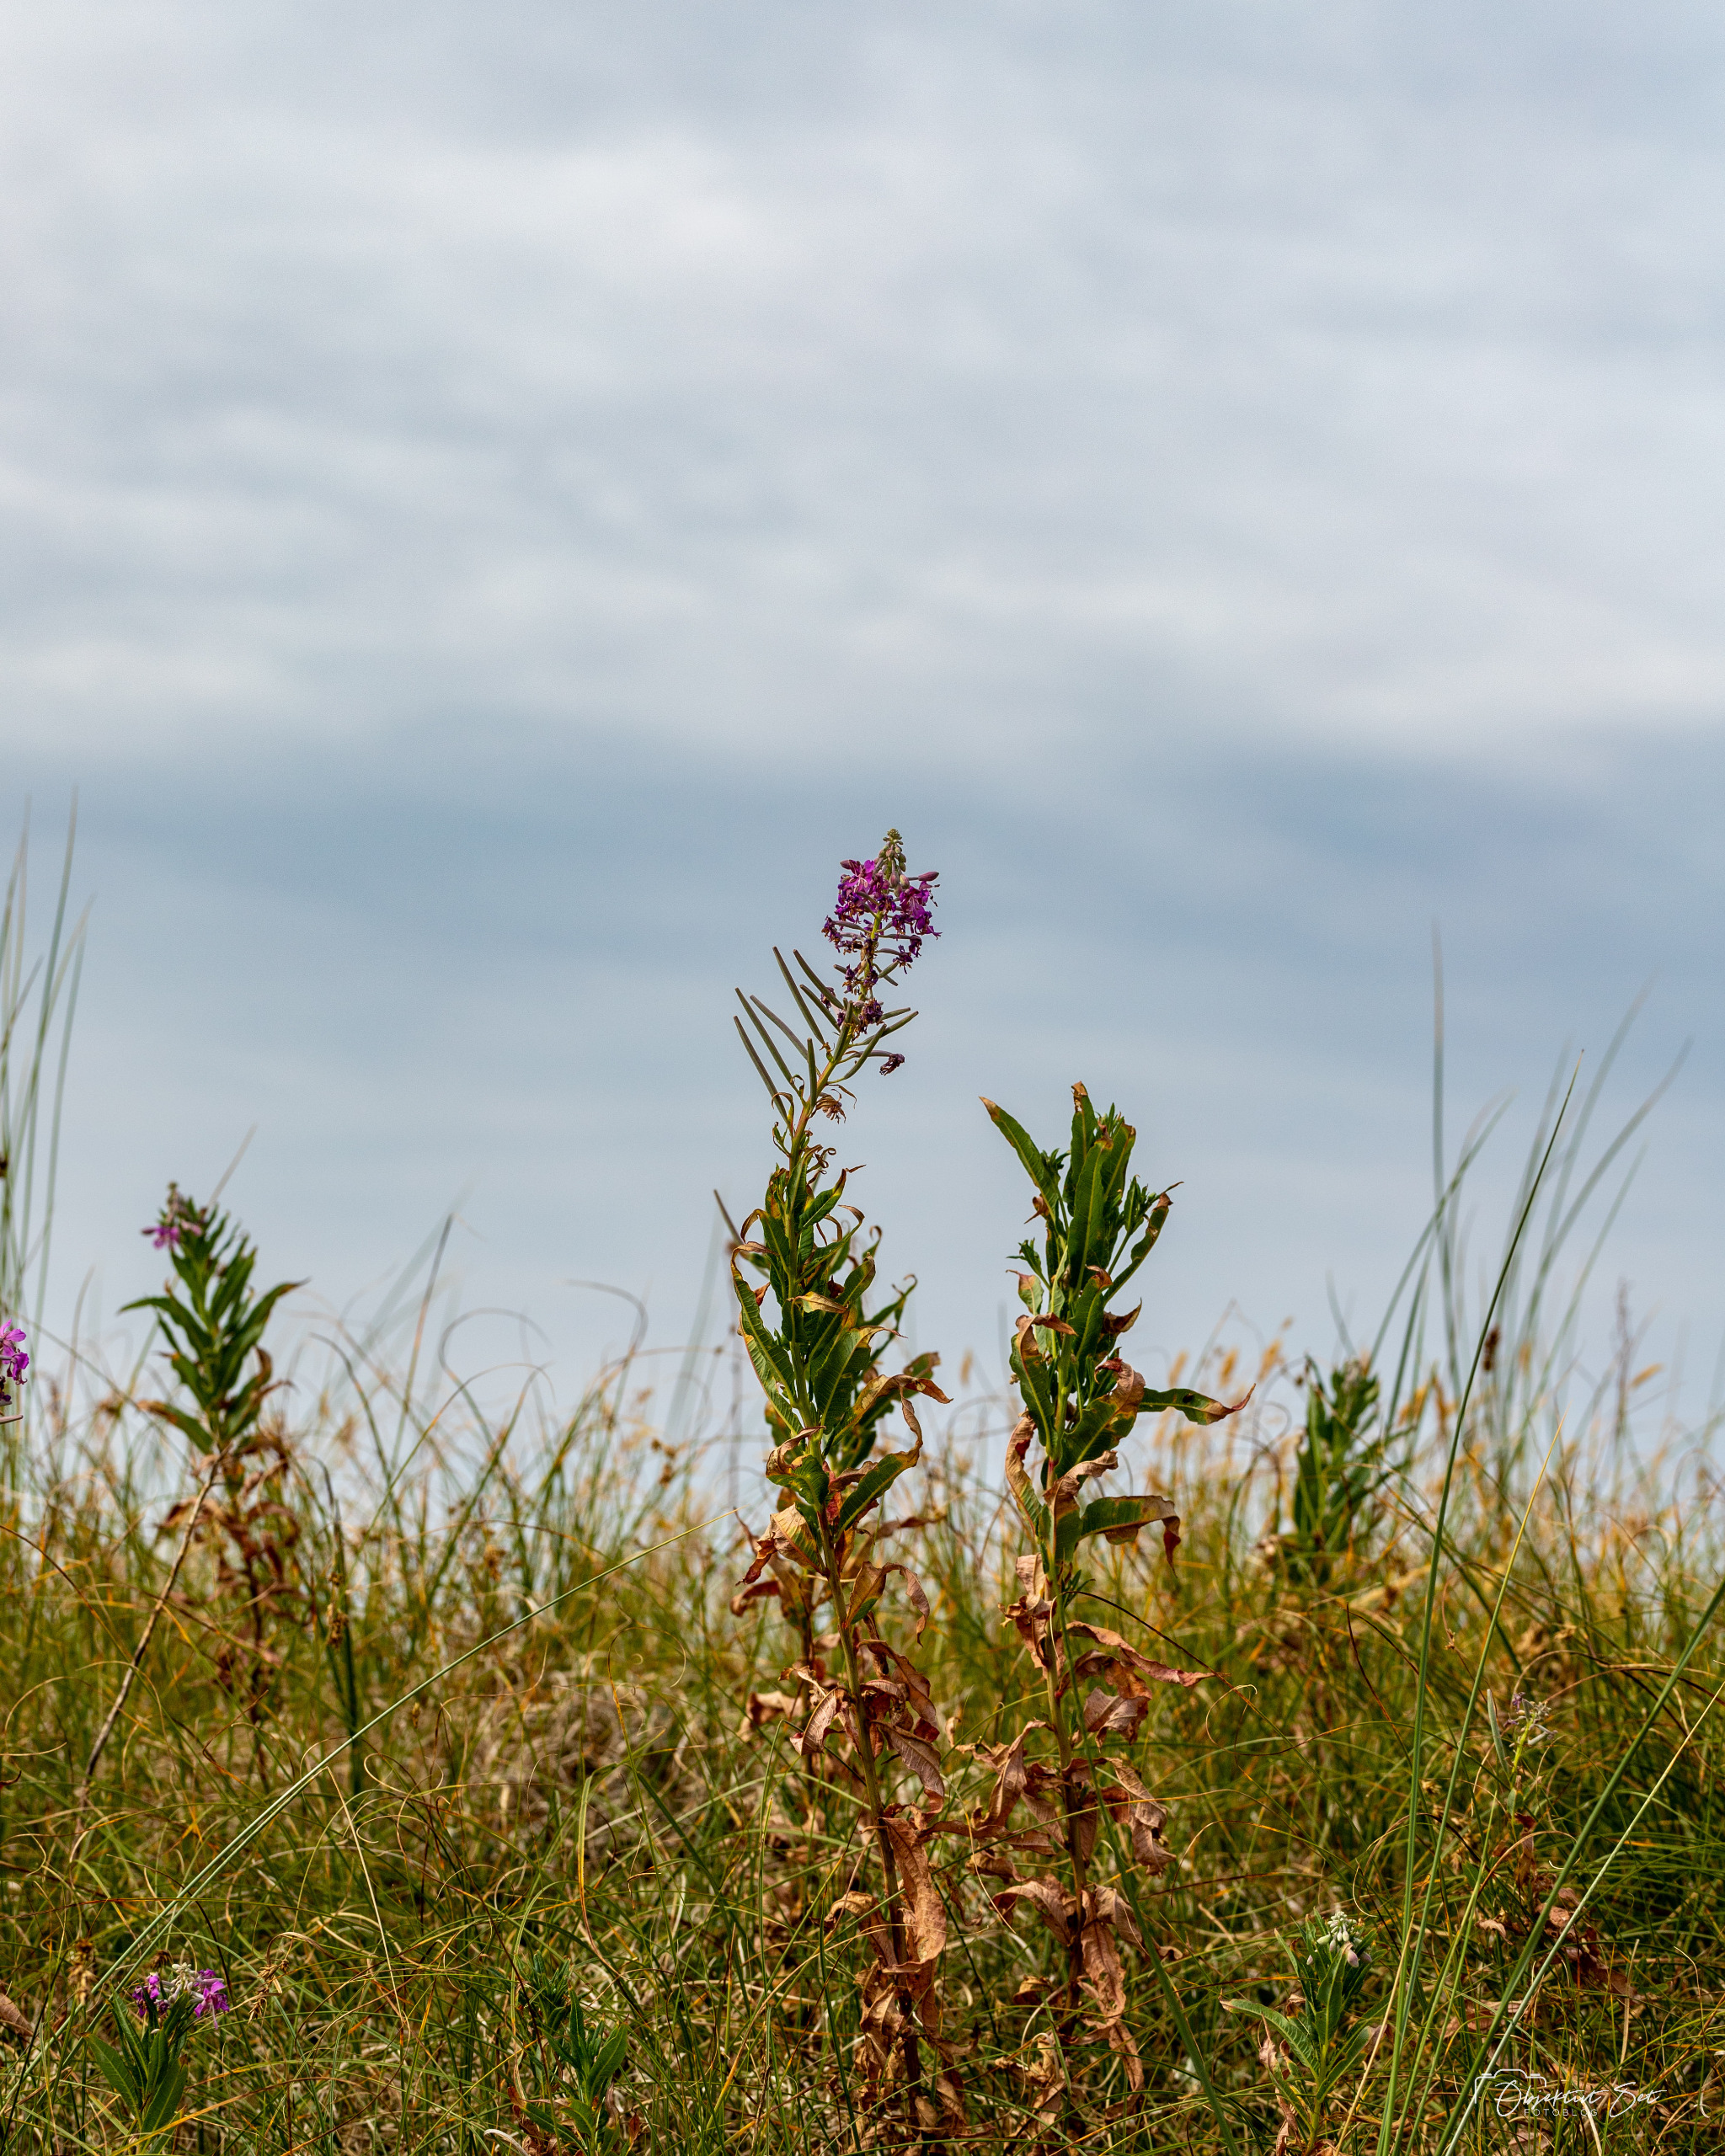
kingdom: Plantae
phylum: Tracheophyta
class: Magnoliopsida
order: Myrtales
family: Onagraceae
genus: Chamaenerion
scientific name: Chamaenerion angustifolium
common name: Gederams
